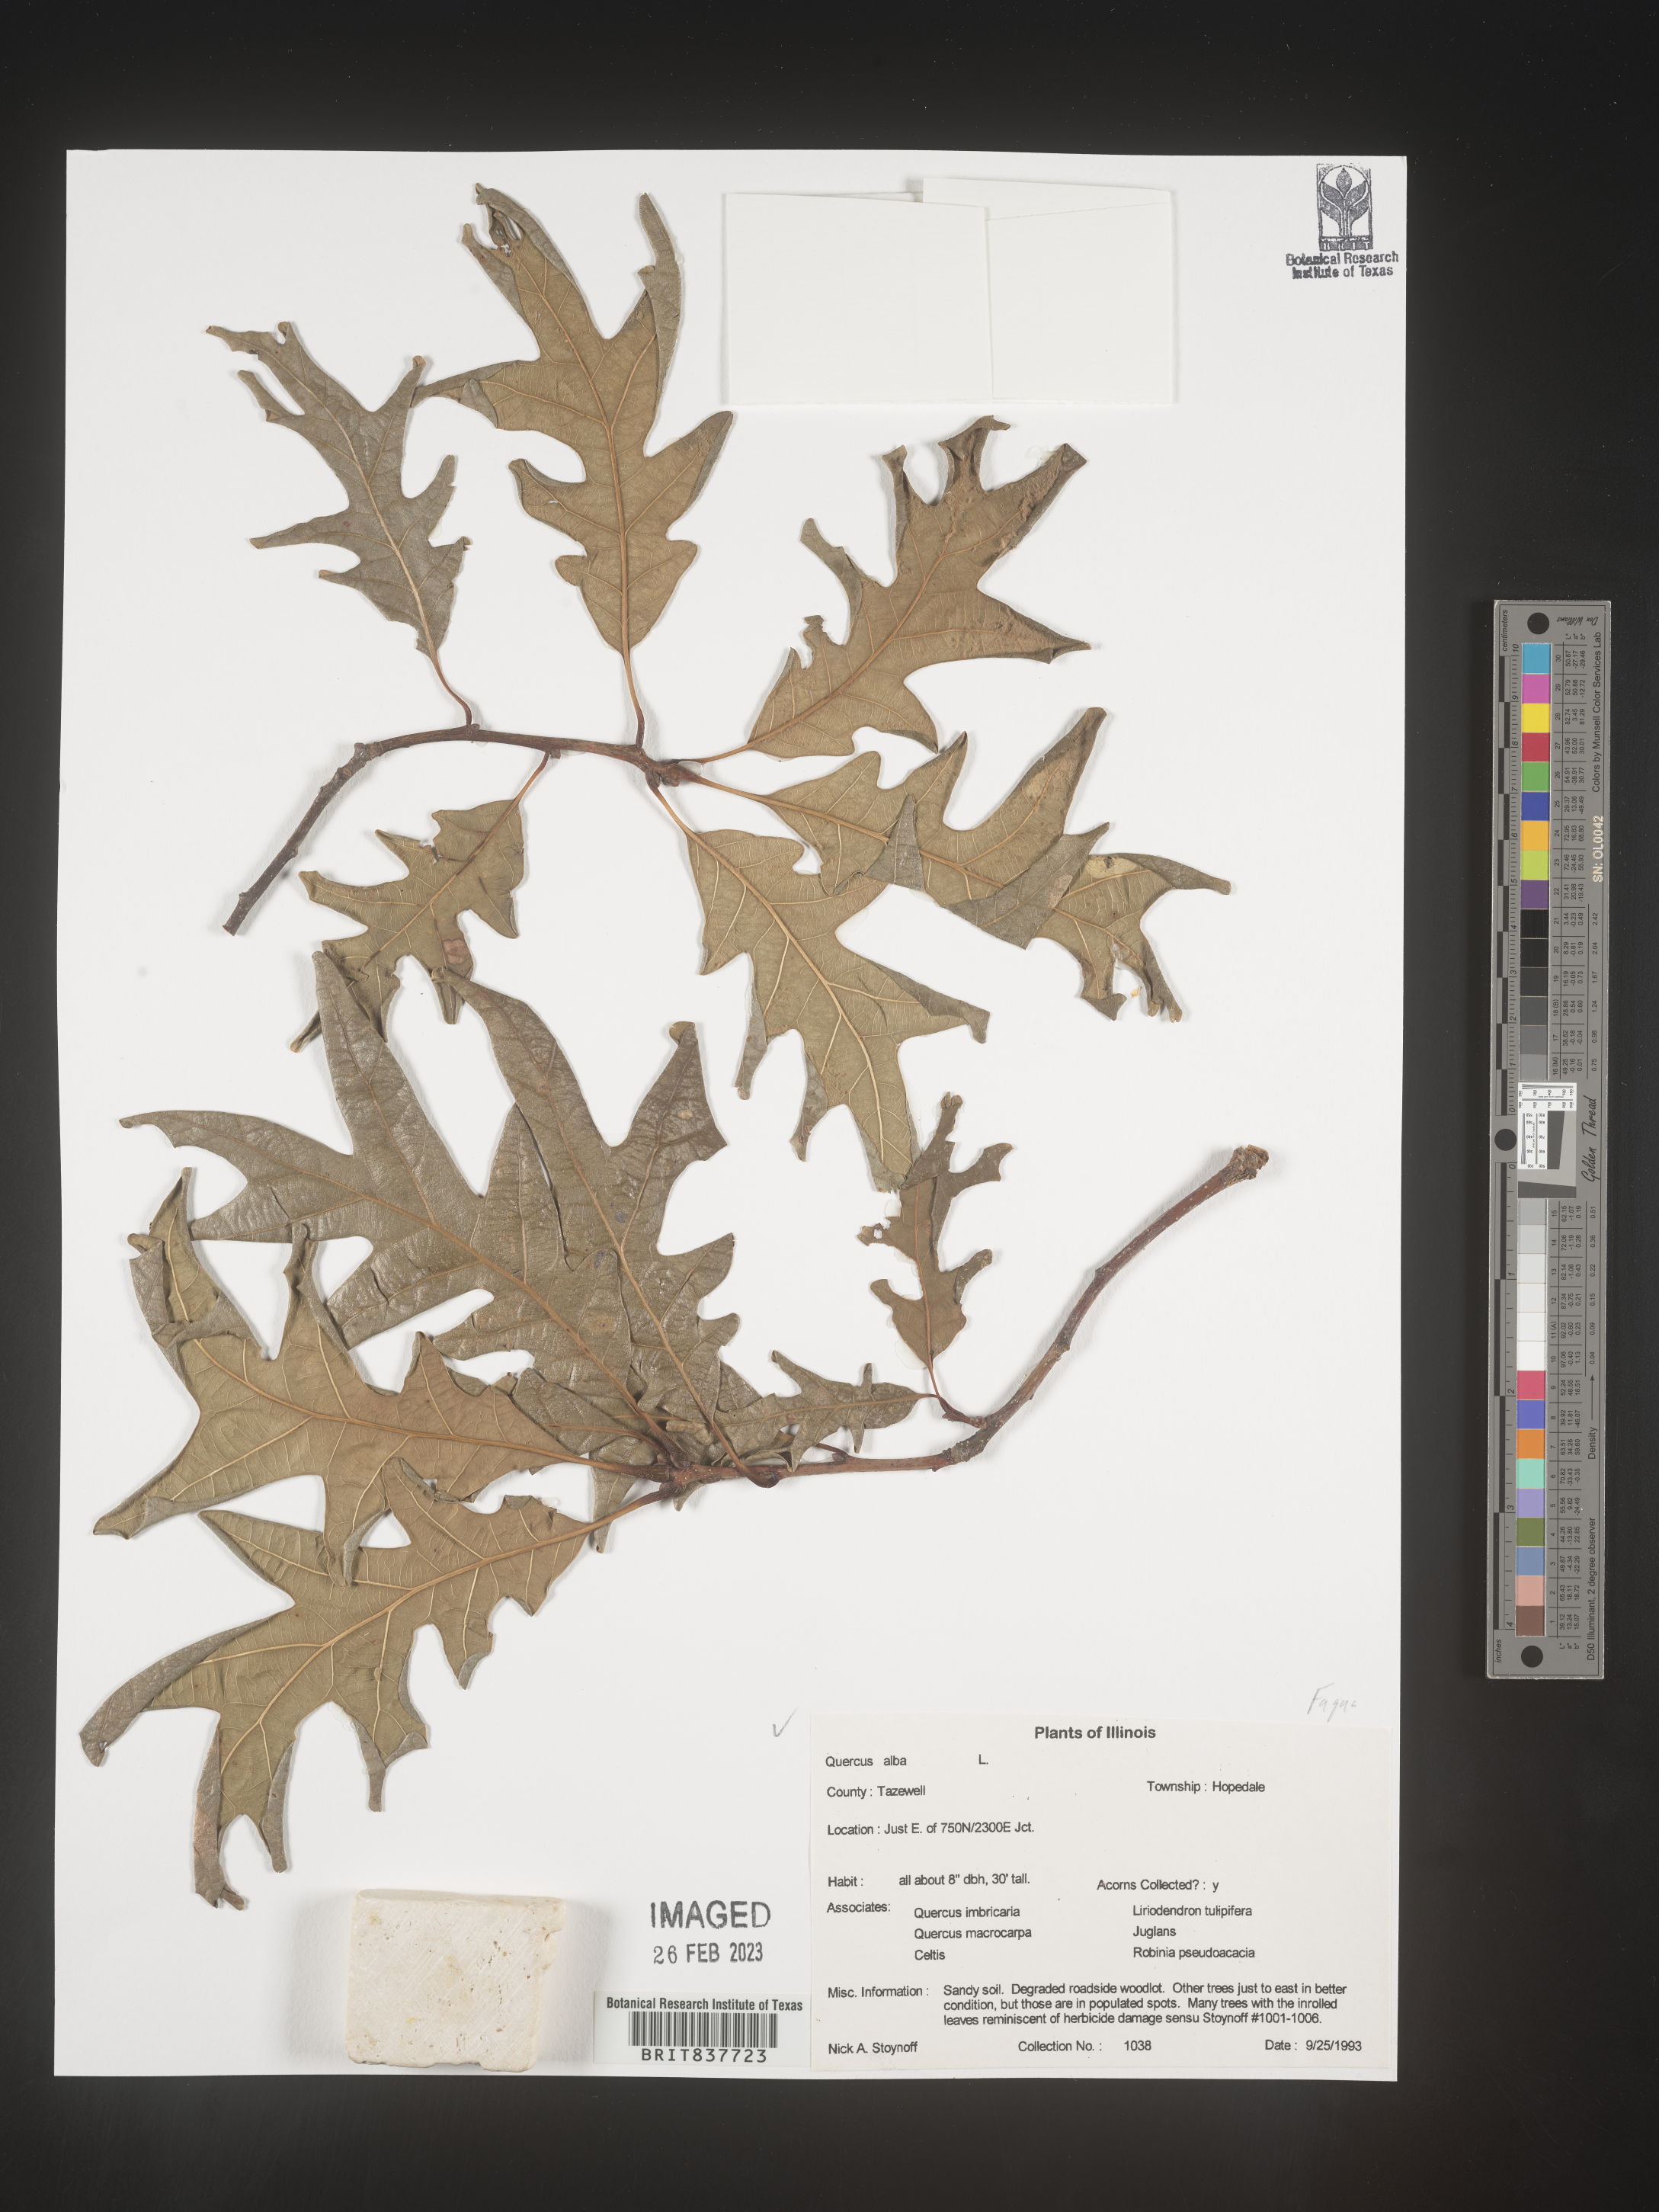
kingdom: Plantae
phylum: Tracheophyta
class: Magnoliopsida
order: Fagales
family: Fagaceae
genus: Quercus
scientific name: Quercus alba
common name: White oak
